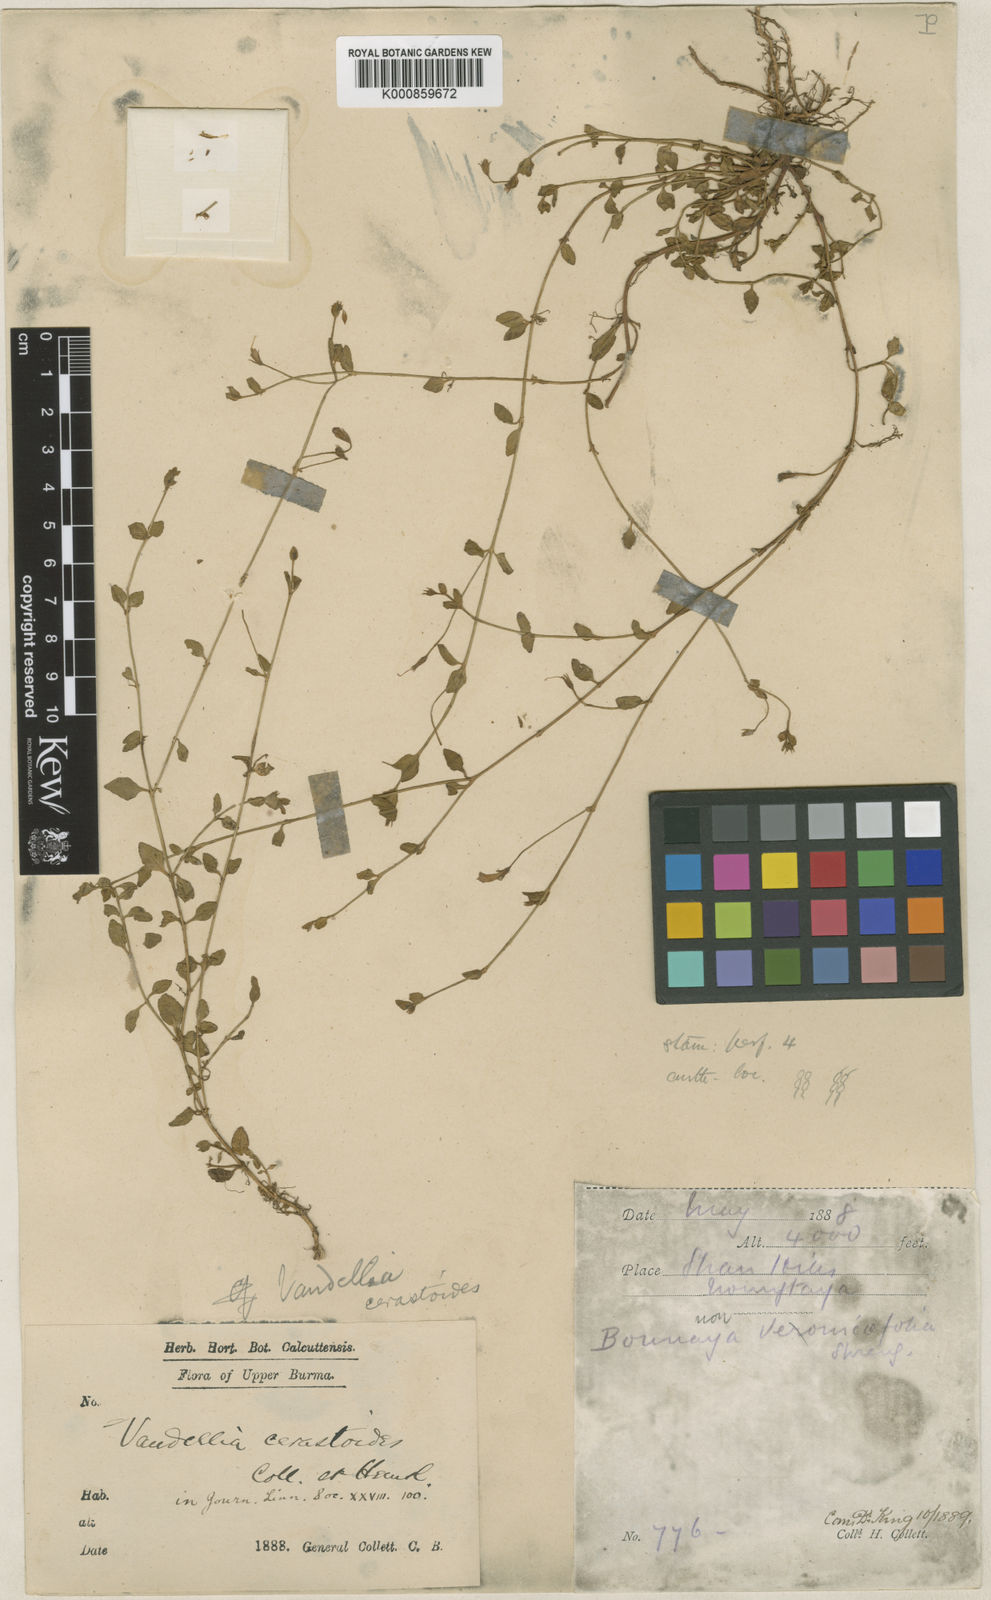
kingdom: Plantae
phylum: Tracheophyta
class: Magnoliopsida
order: Lamiales
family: Linderniaceae
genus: Torenia
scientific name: Torenia anagallis
